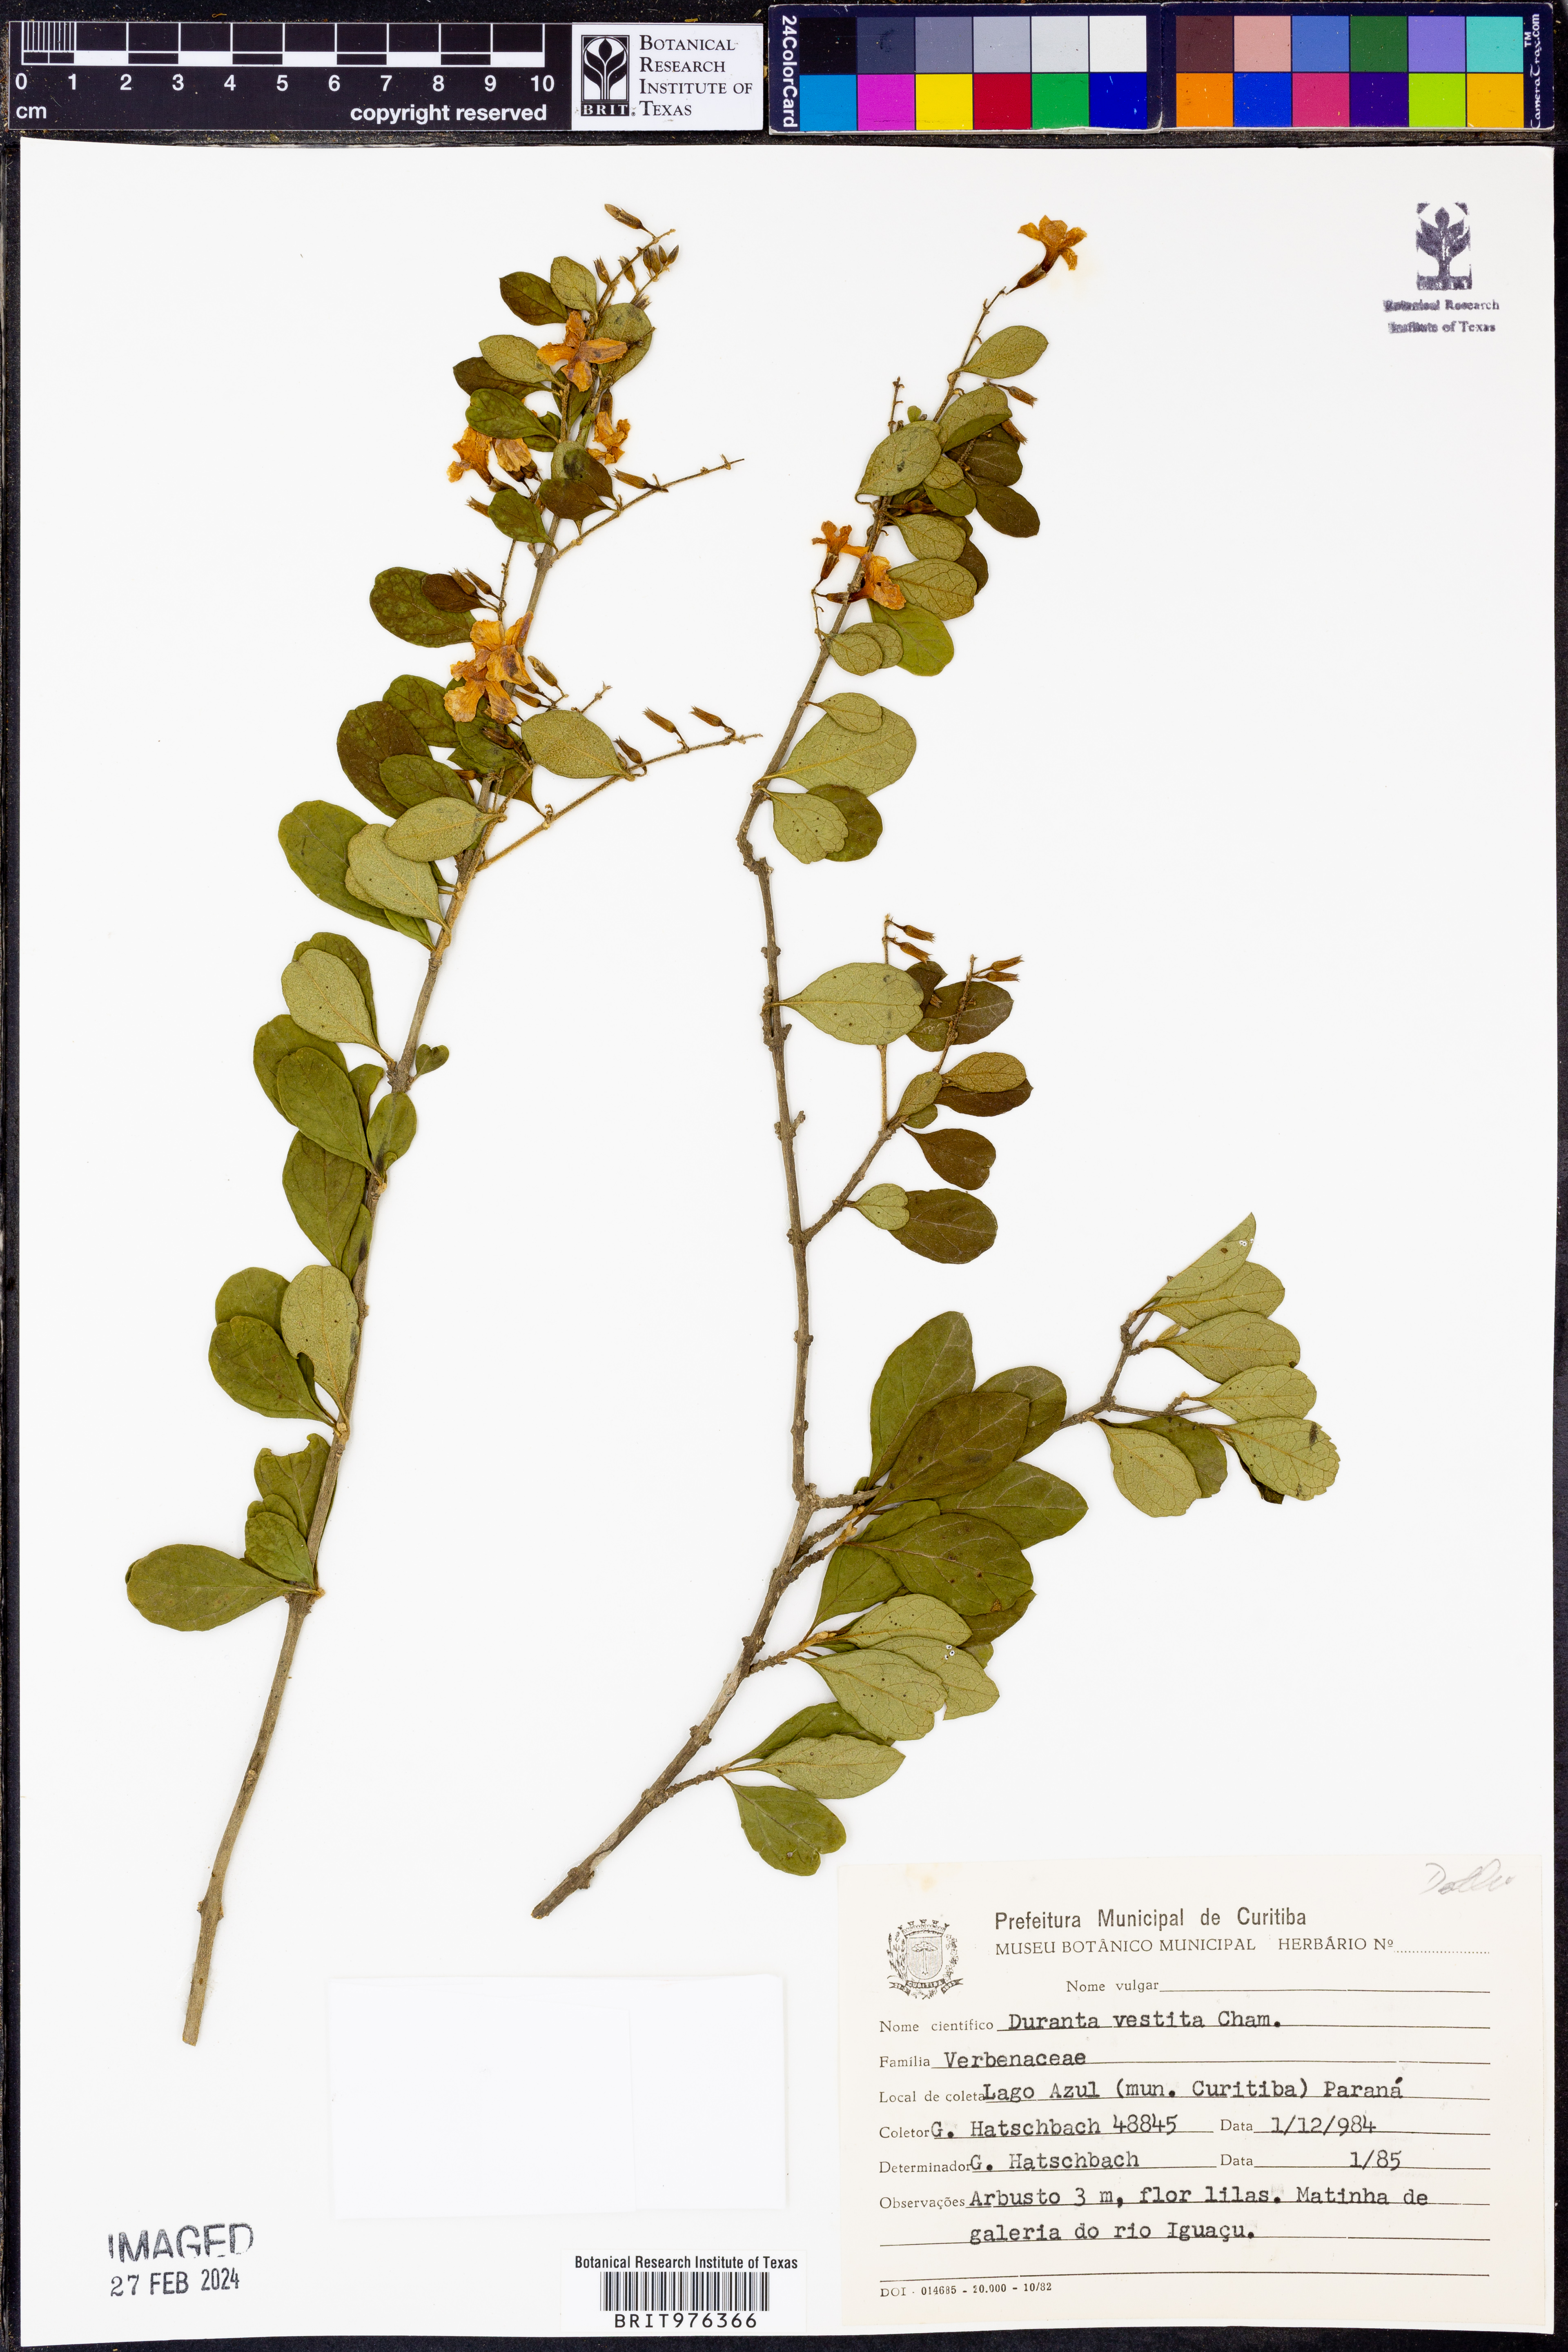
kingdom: Plantae
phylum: Tracheophyta
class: Magnoliopsida
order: Lamiales
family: Verbenaceae
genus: Duranta
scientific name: Duranta
